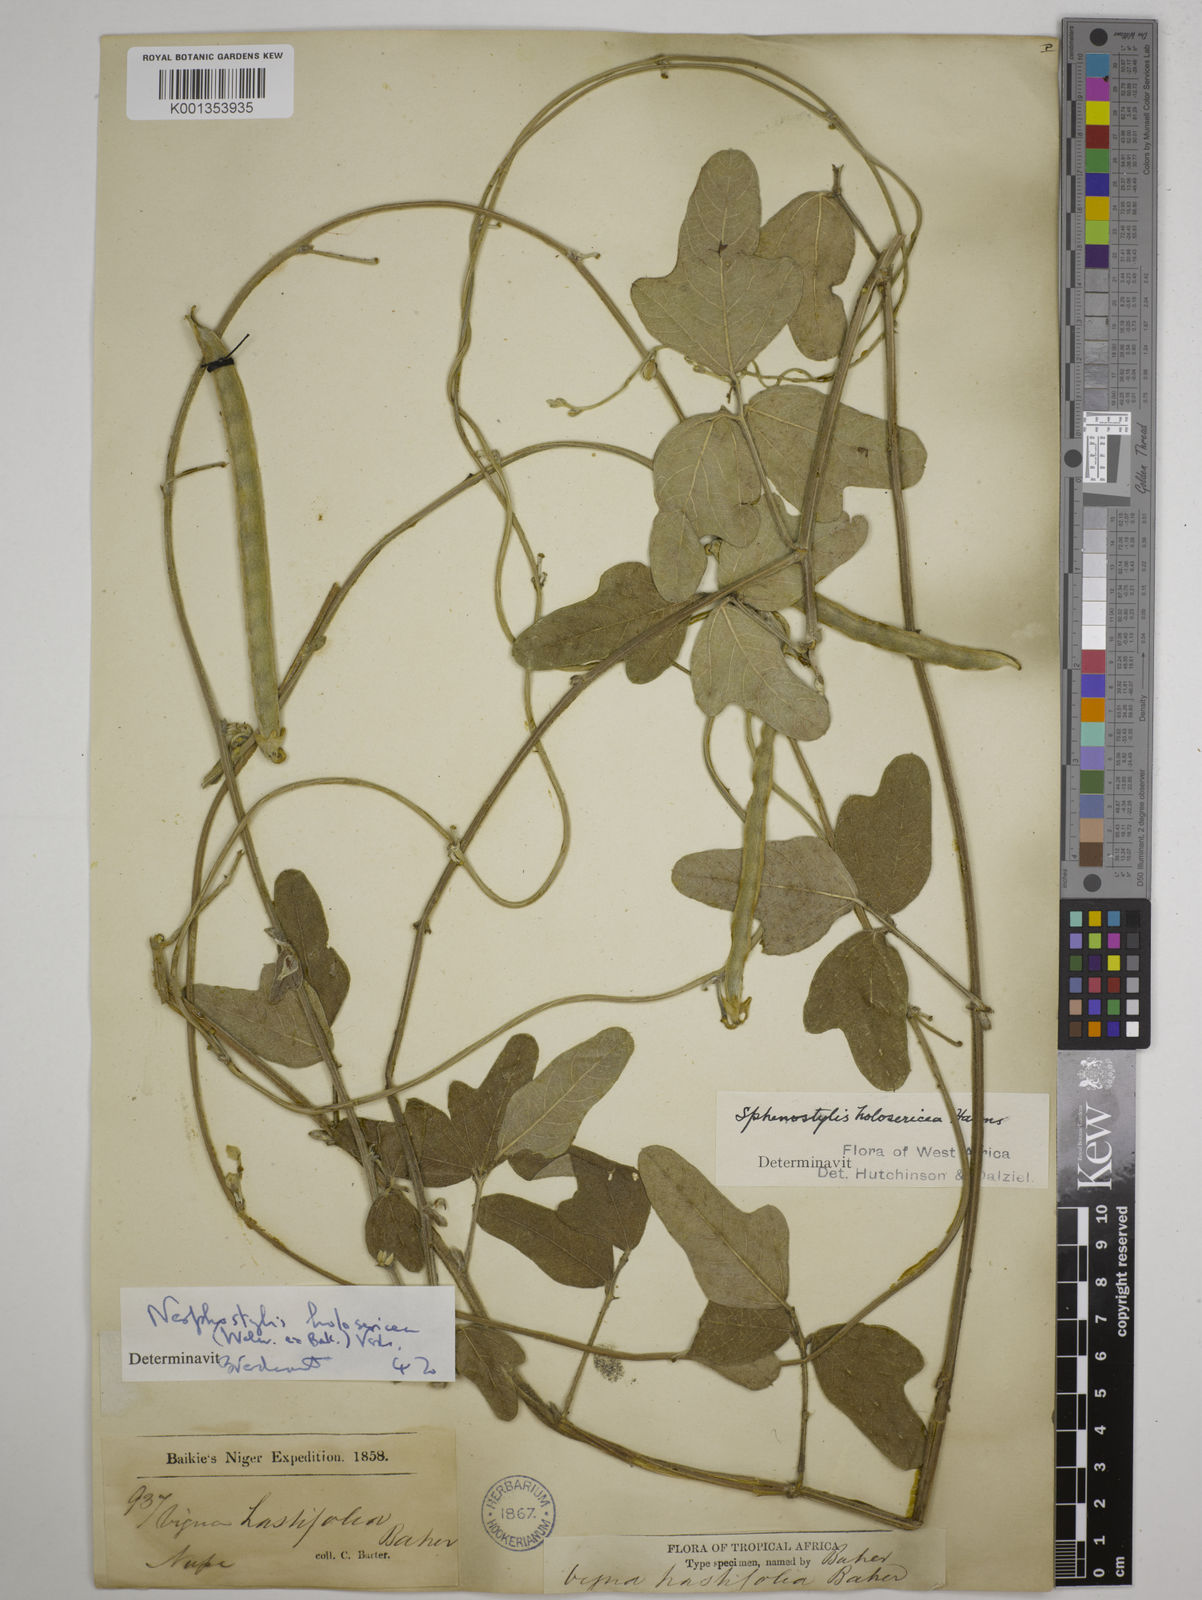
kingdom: Plantae
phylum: Tracheophyta
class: Magnoliopsida
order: Fabales
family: Fabaceae
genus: Nesphostylis
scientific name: Nesphostylis holosericea
